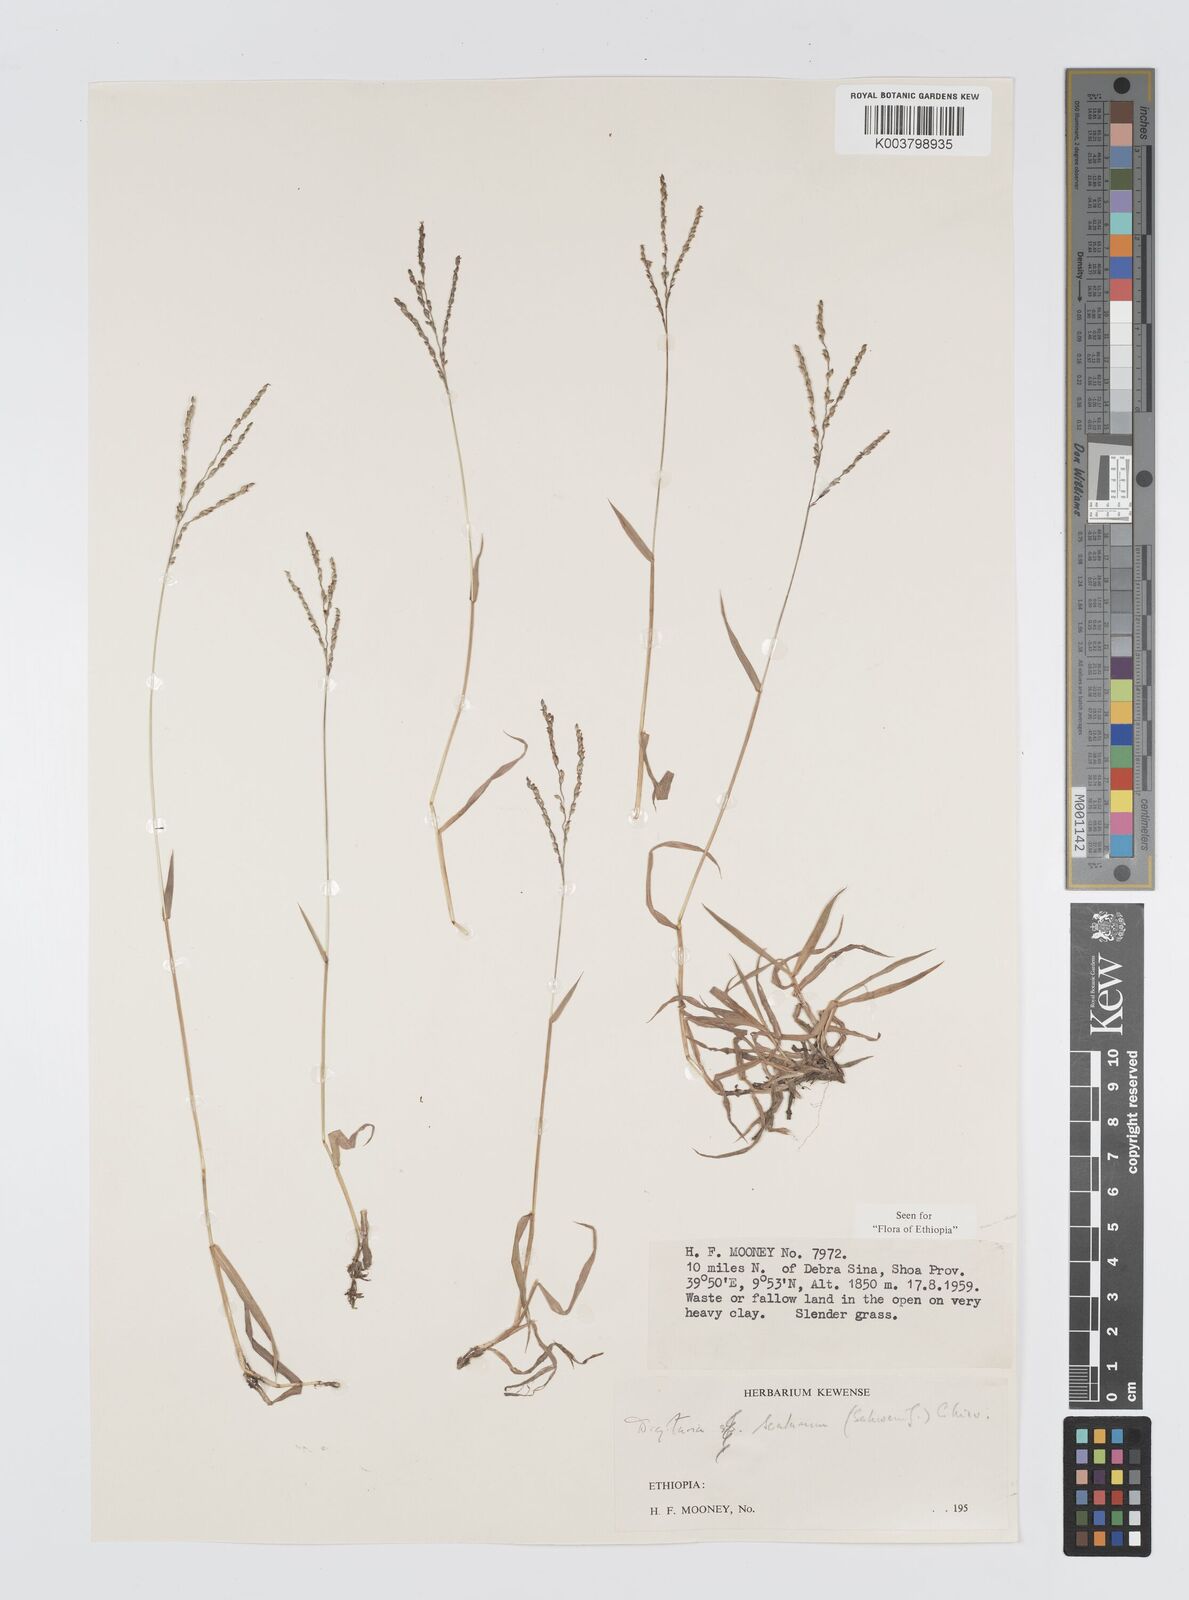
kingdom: Plantae
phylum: Tracheophyta
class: Liliopsida
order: Poales
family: Poaceae
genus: Digitaria
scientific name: Digitaria abyssinica
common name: African couchgrass
